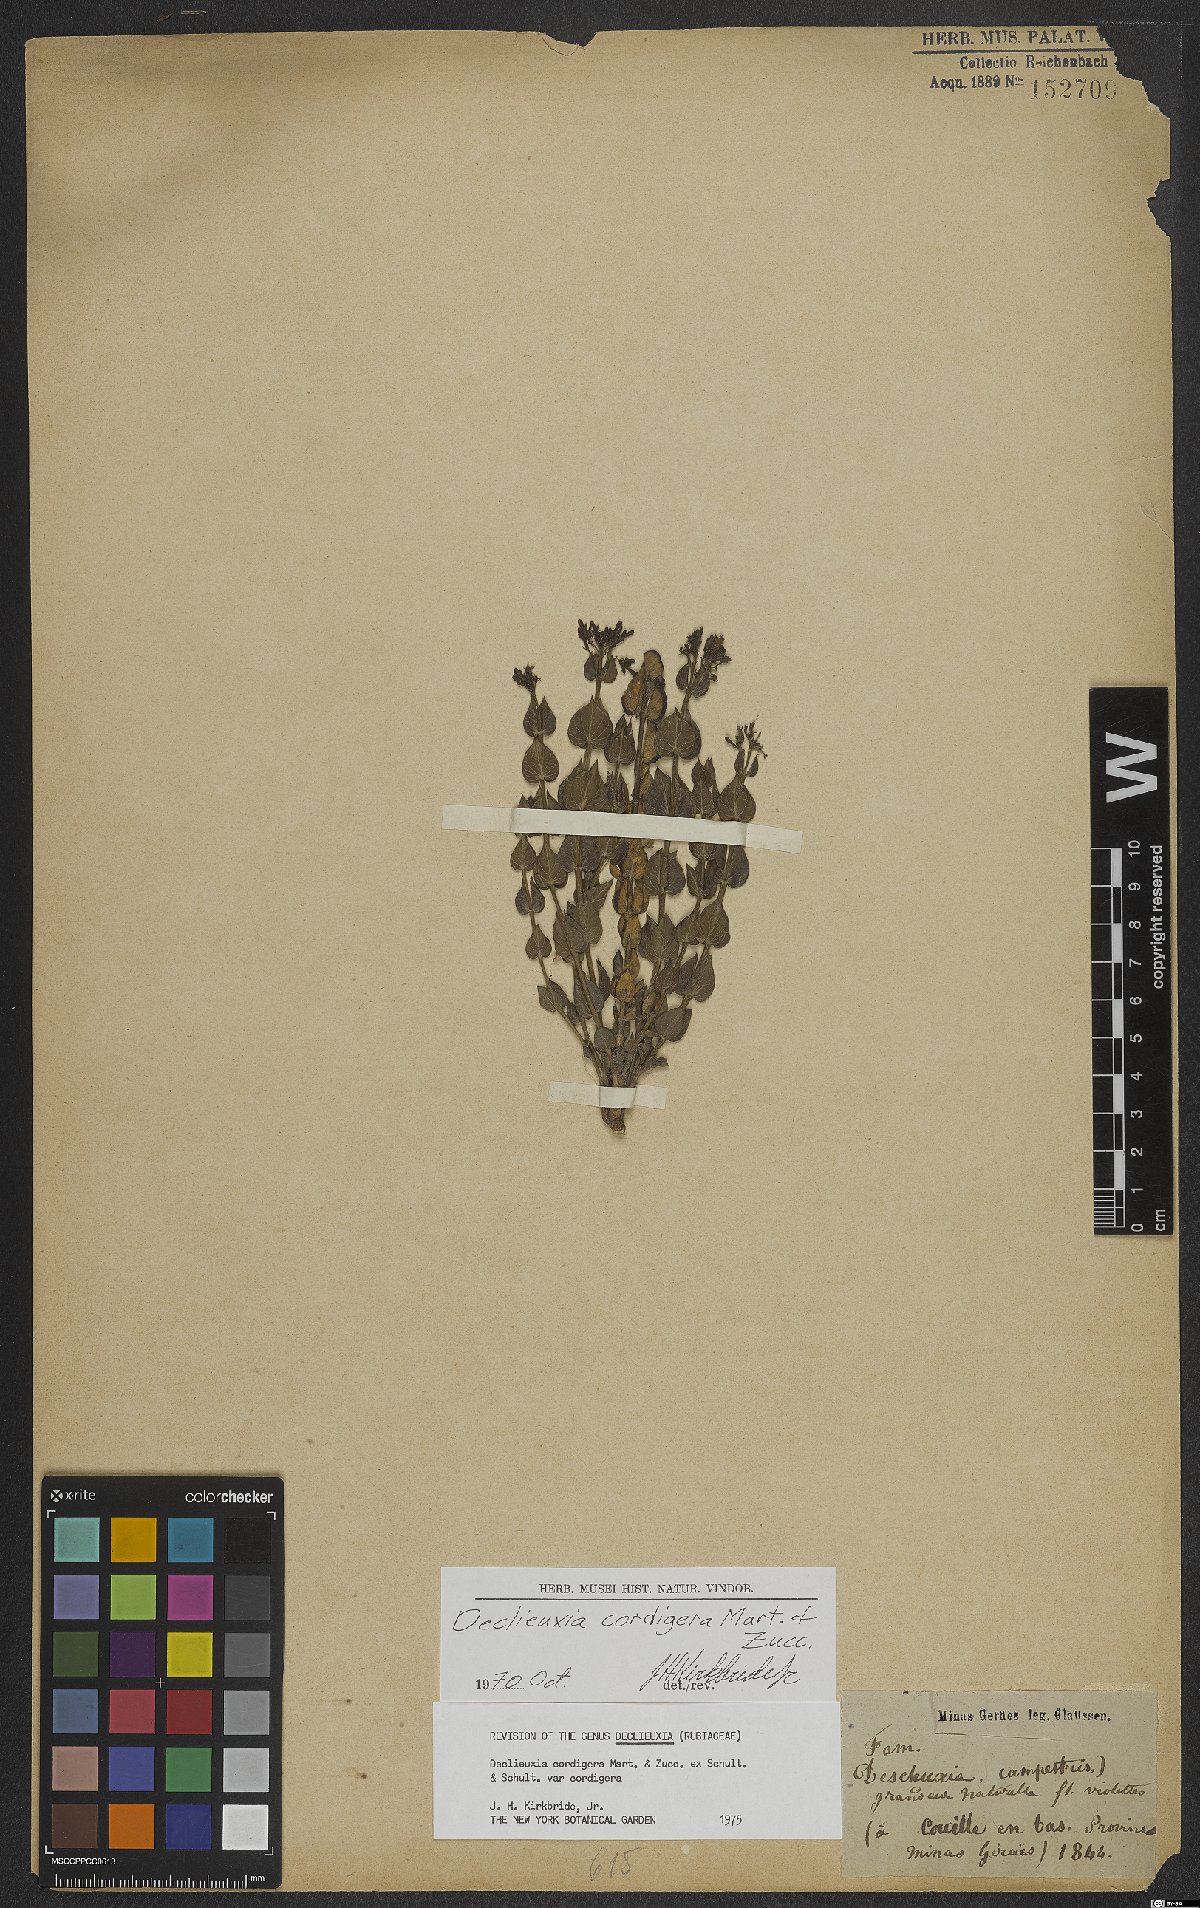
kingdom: Plantae
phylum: Tracheophyta
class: Magnoliopsida
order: Gentianales
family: Rubiaceae
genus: Declieuxia
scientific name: Declieuxia cordigera
